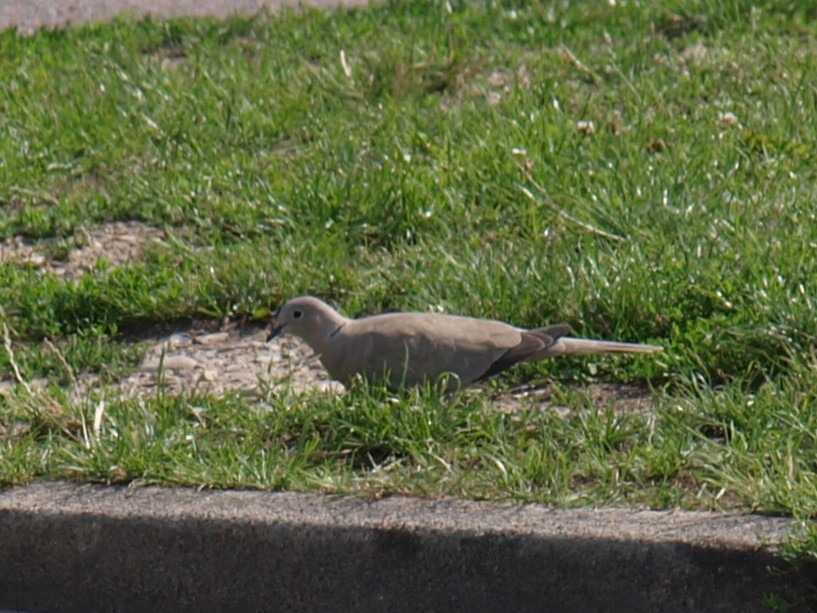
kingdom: Animalia
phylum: Chordata
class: Aves
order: Columbiformes
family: Columbidae
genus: Streptopelia
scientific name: Streptopelia decaocto
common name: Tyrkerdue
